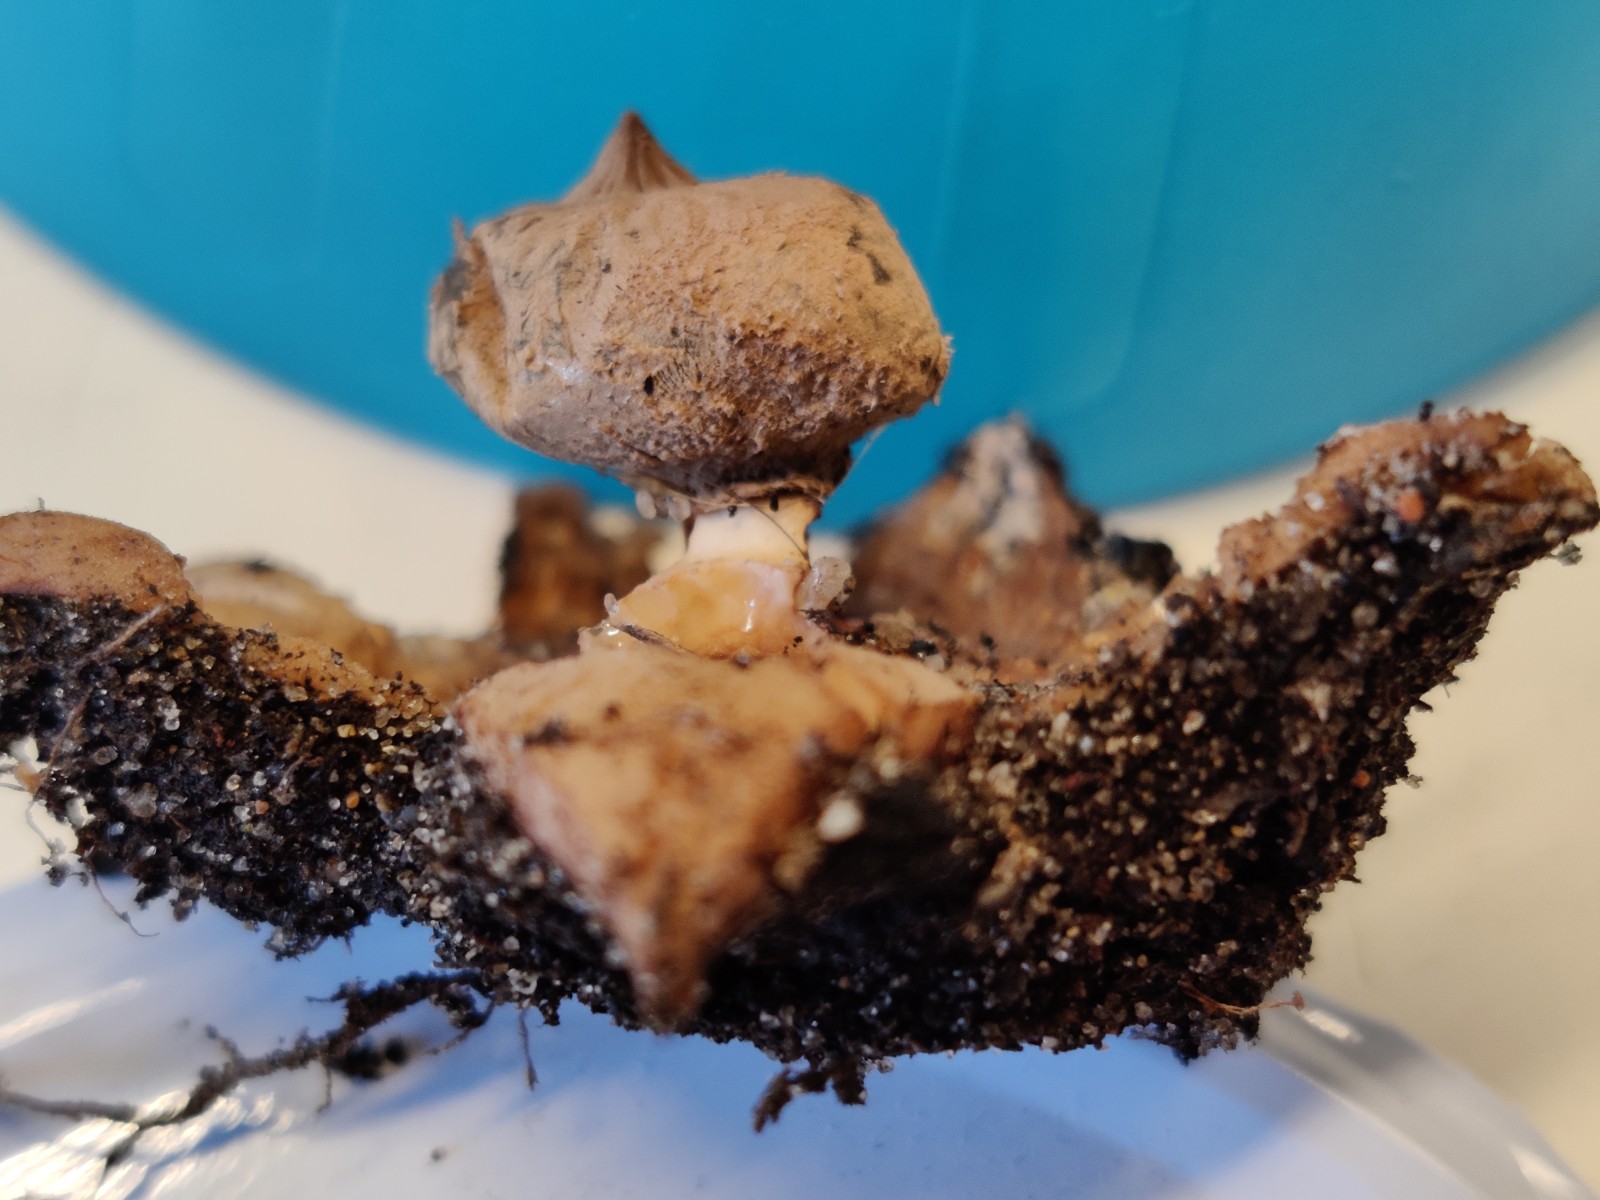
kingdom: Fungi
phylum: Basidiomycota
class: Agaricomycetes
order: Geastrales
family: Geastraceae
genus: Geastrum
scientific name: Geastrum striatum
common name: krave-stjernebold
